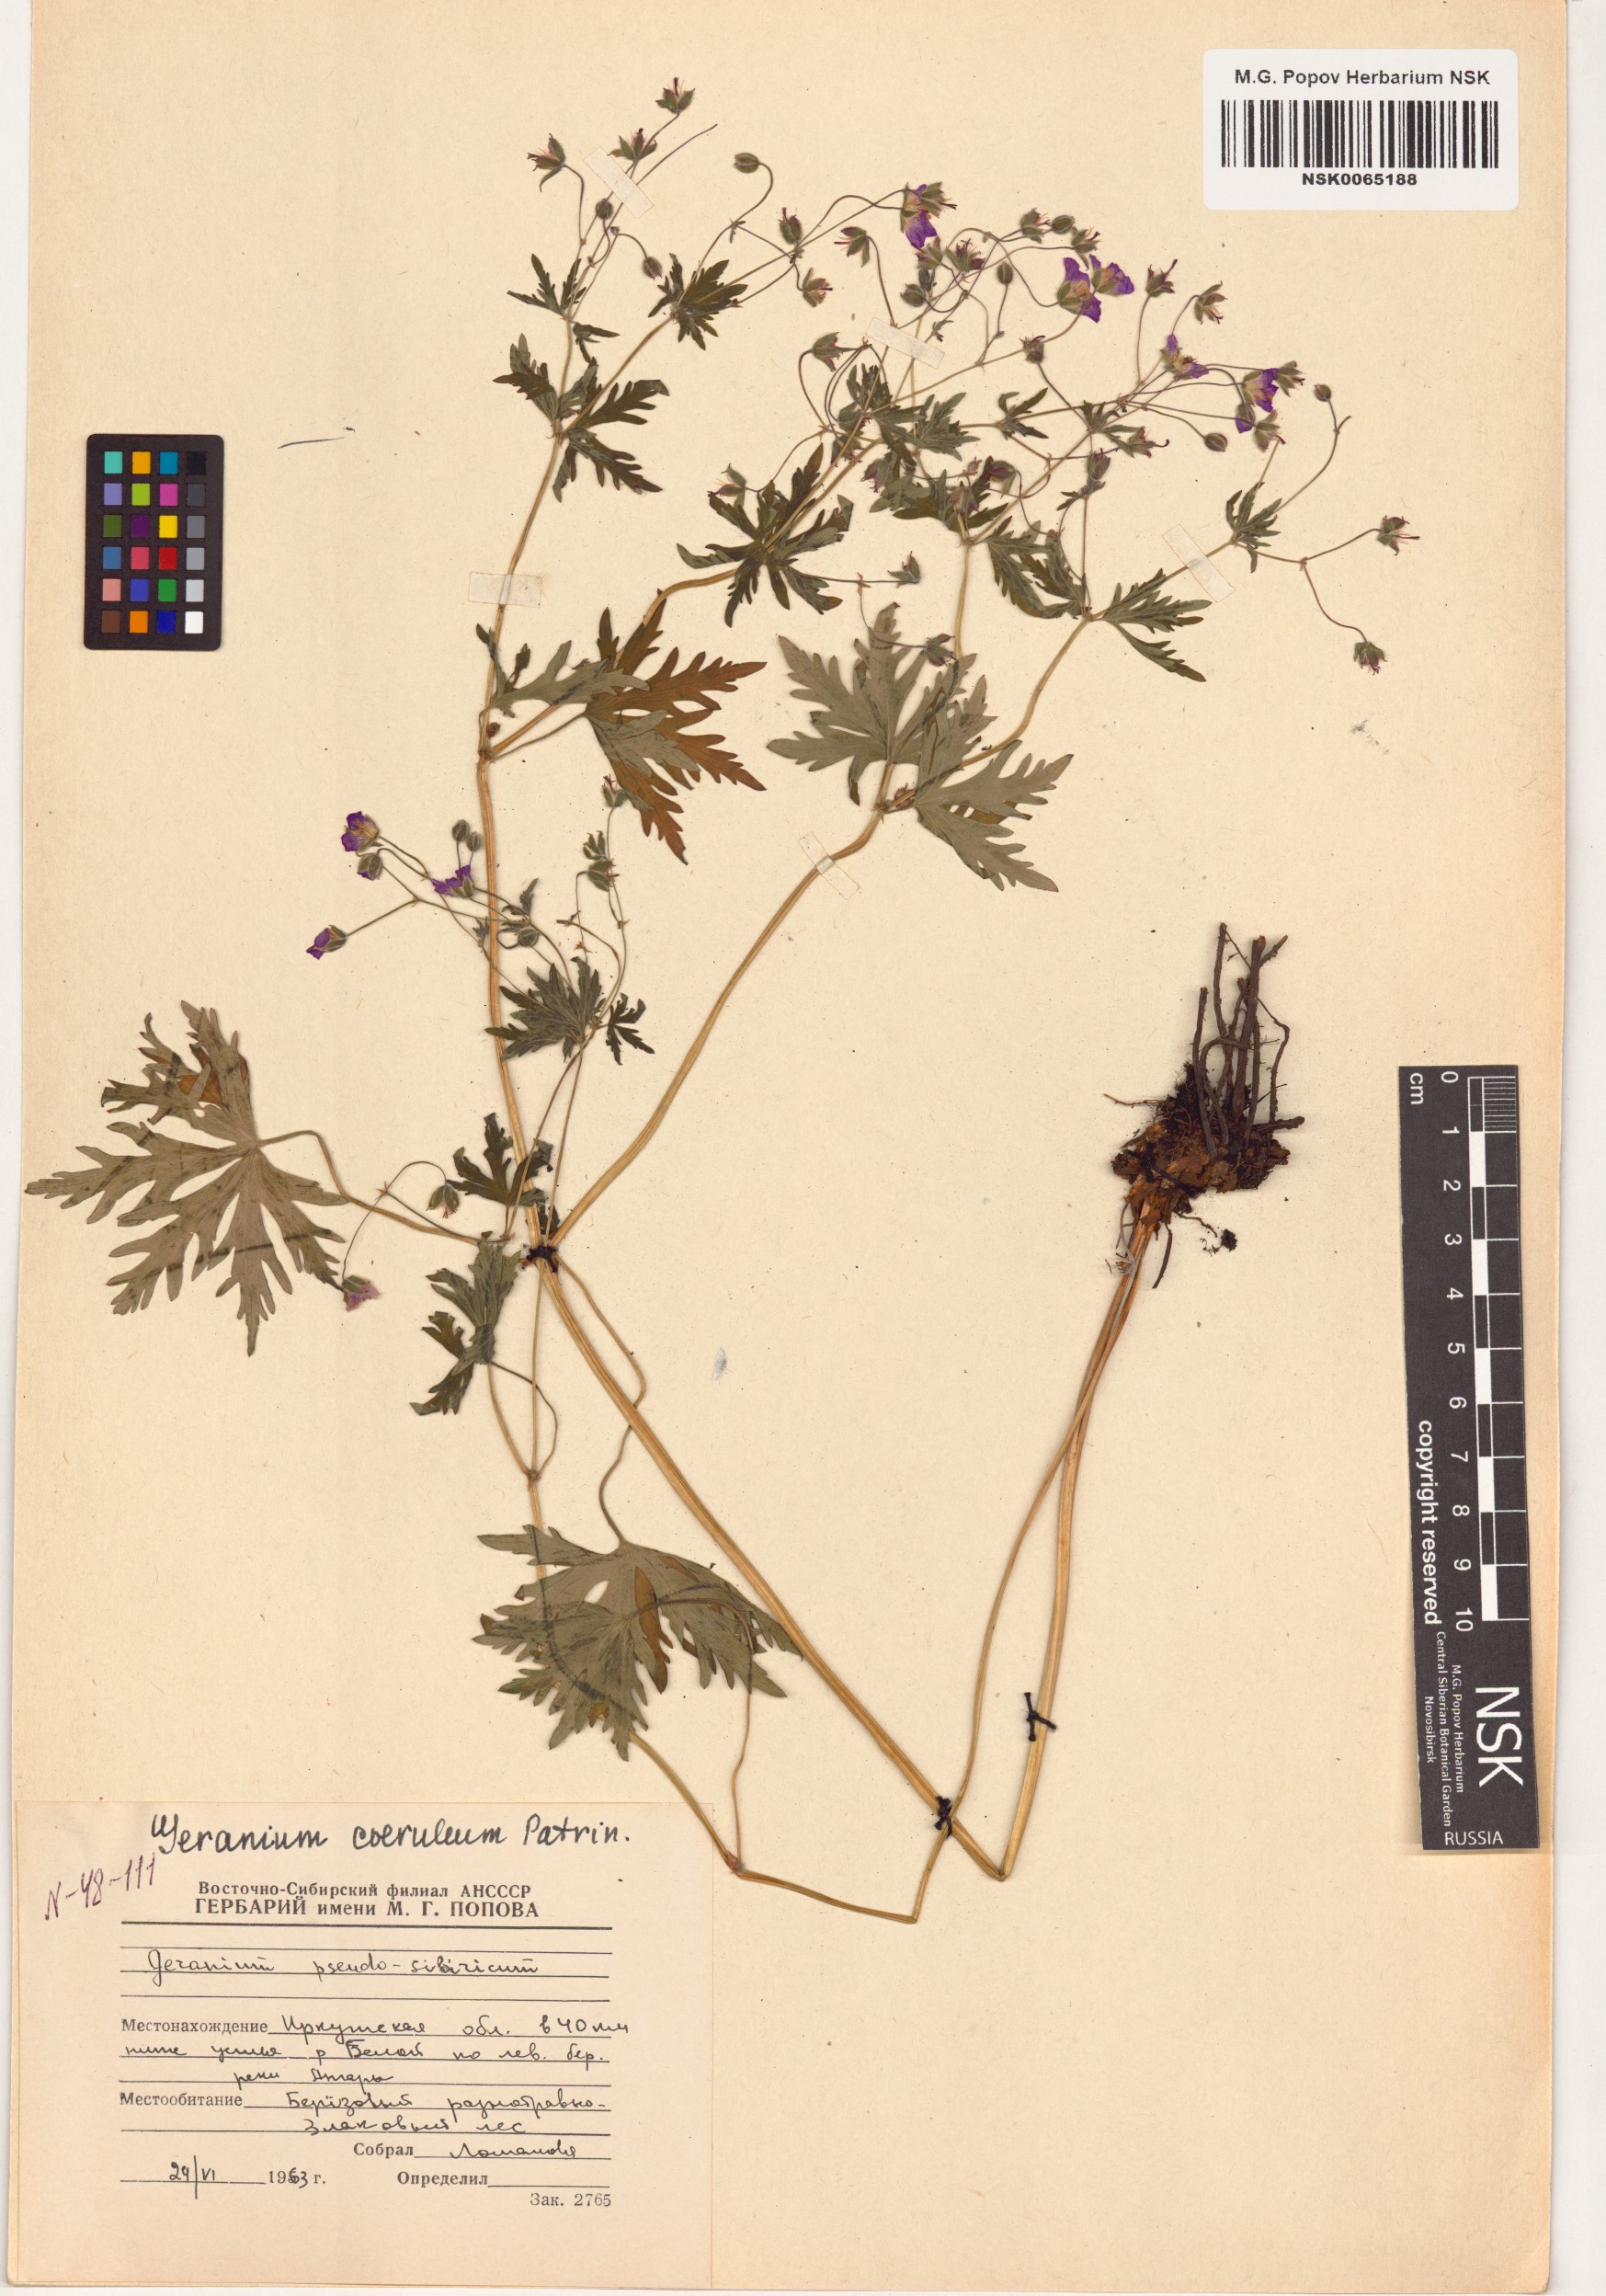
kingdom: Plantae
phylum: Tracheophyta
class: Magnoliopsida
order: Geraniales
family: Geraniaceae
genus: Geranium
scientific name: Geranium pseudosibiricum
